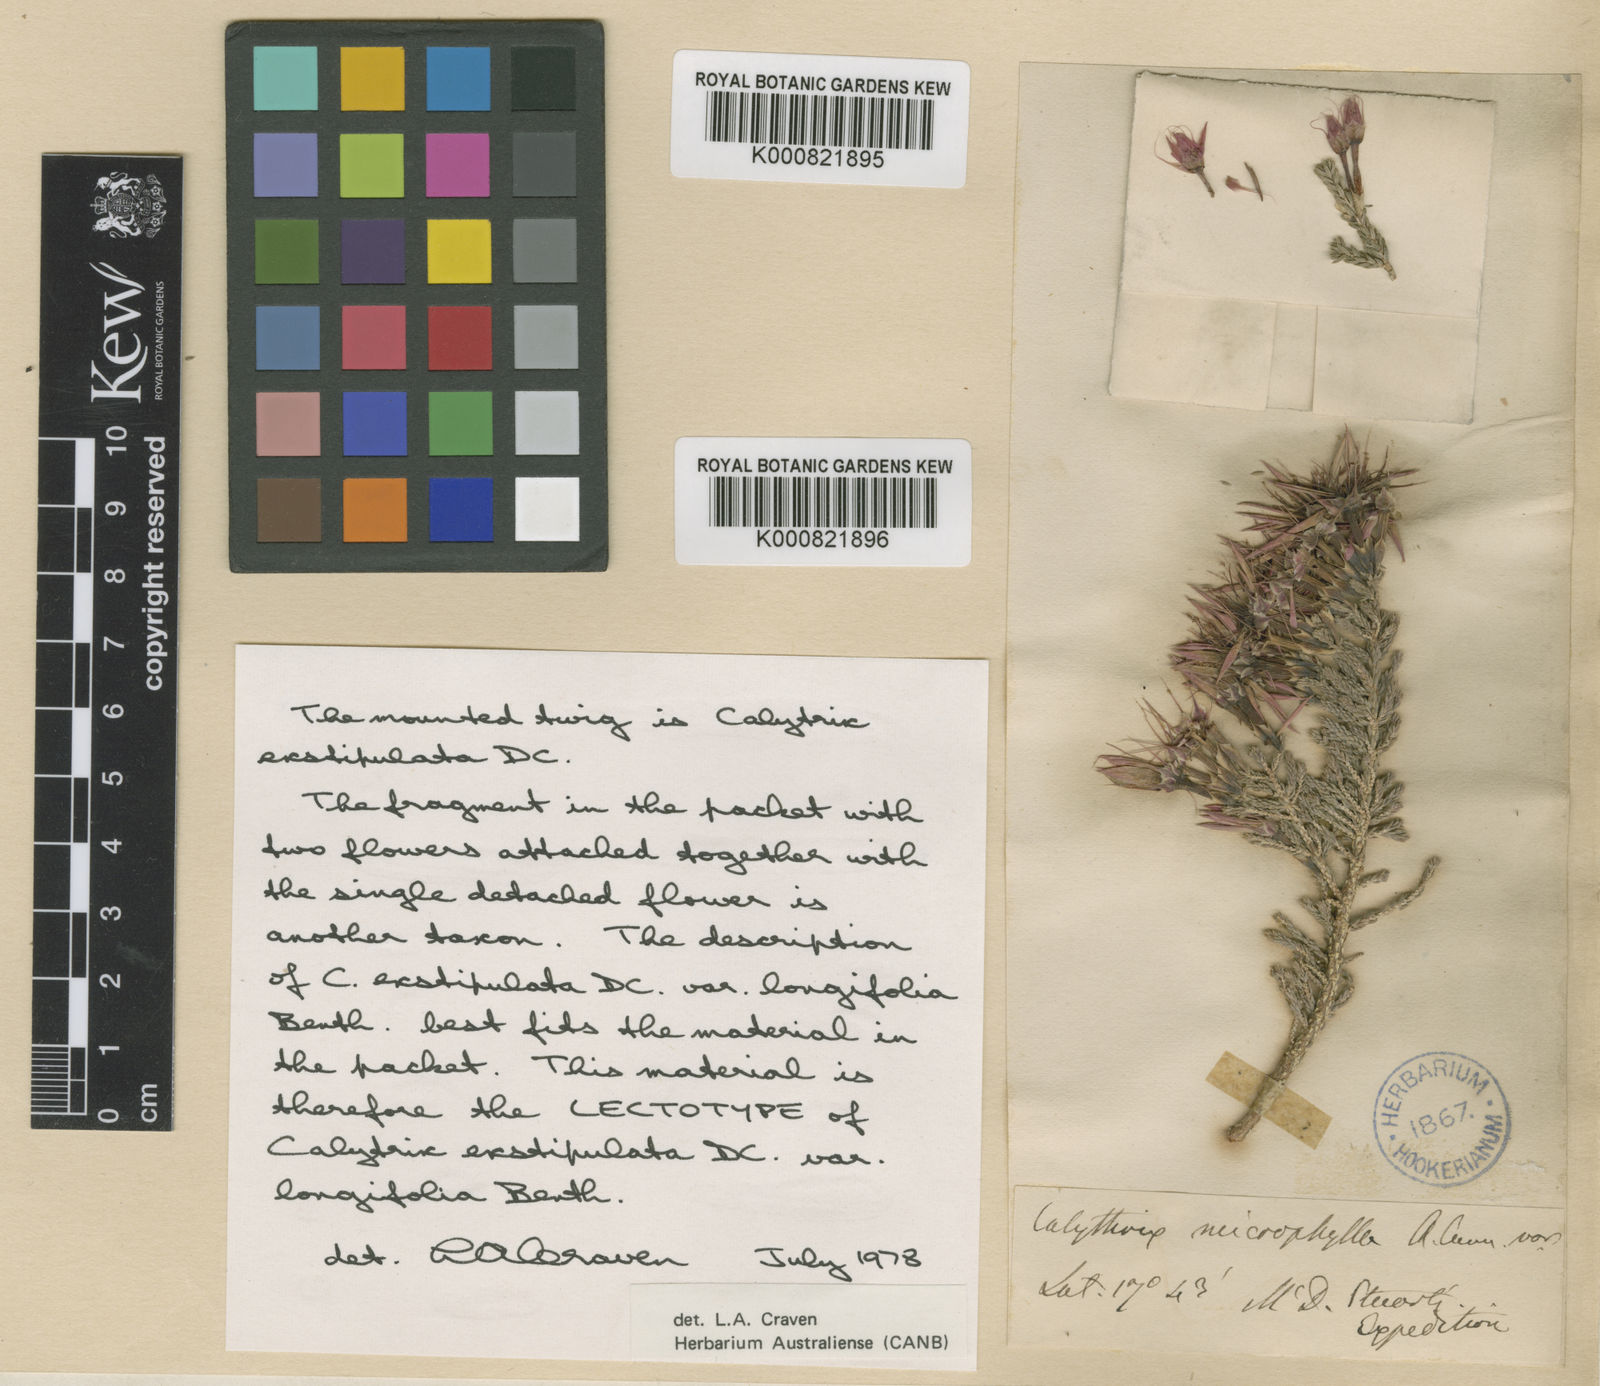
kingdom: Plantae
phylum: Tracheophyta
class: Magnoliopsida
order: Myrtales
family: Myrtaceae
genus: Calytrix
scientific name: Calytrix exstipulata
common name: Kimberley heather
